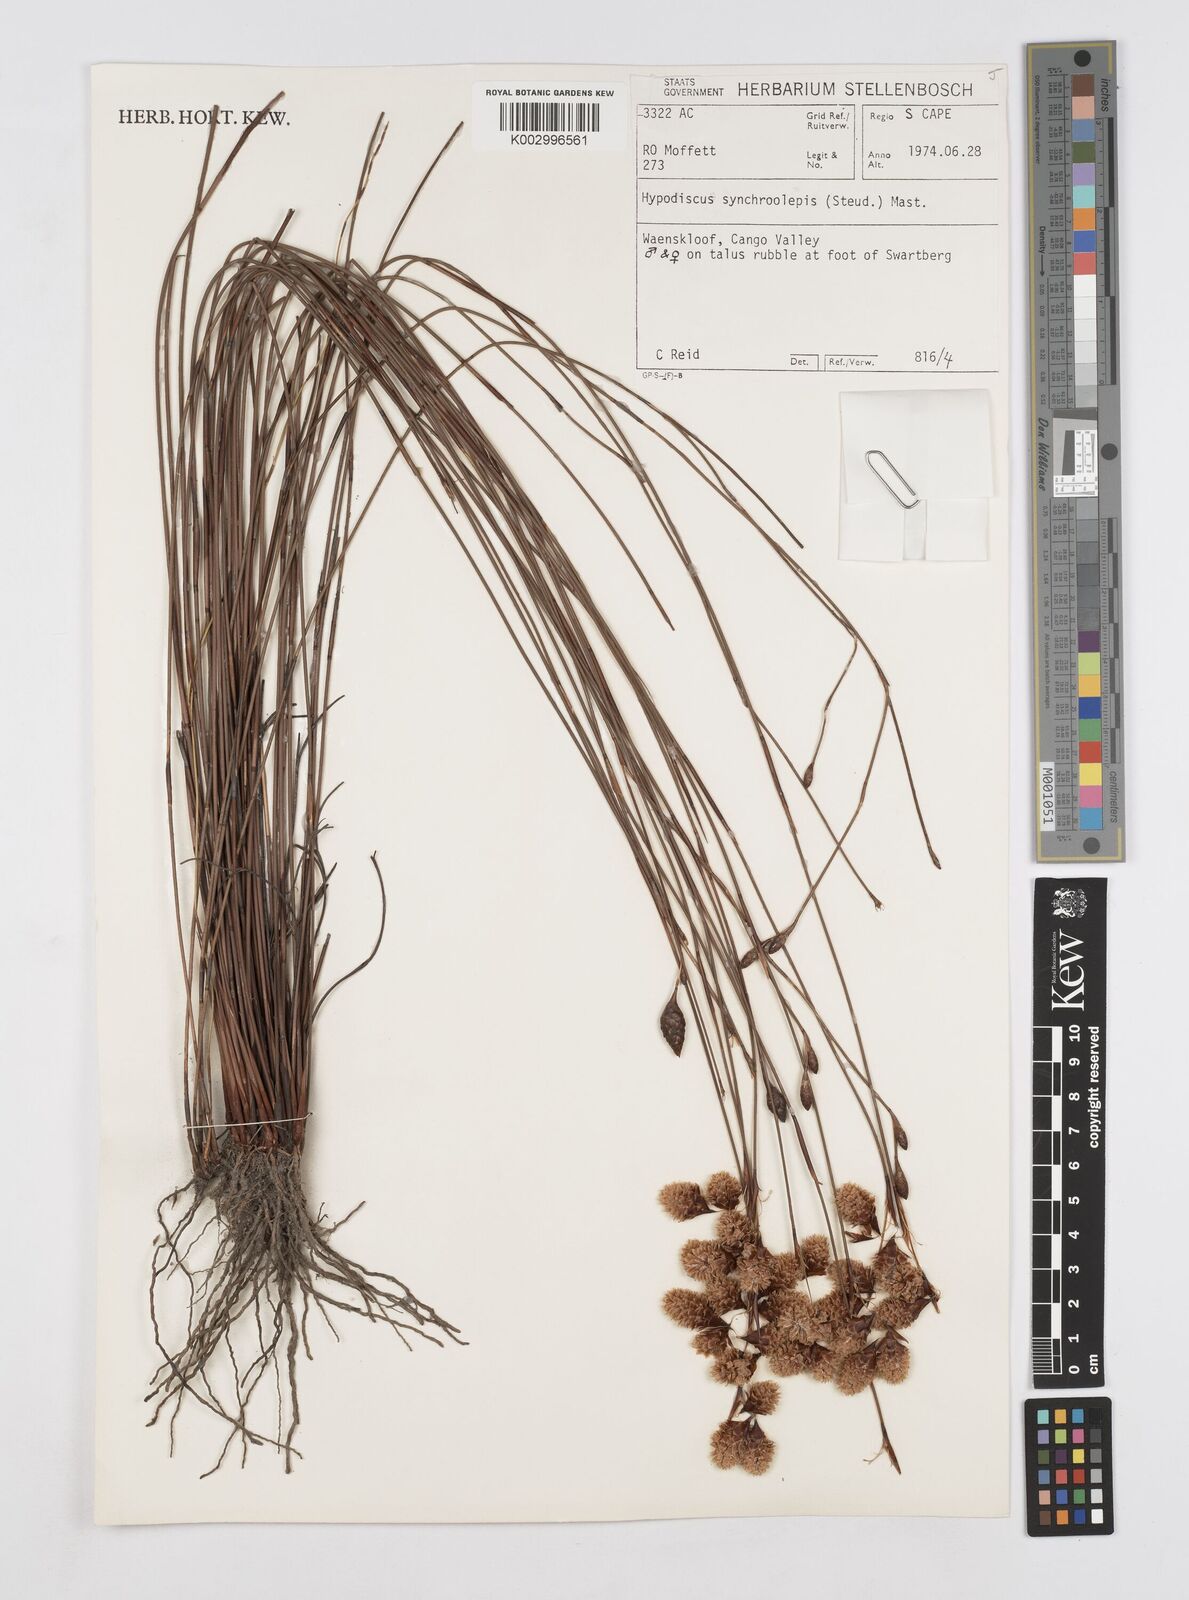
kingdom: Plantae
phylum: Tracheophyta
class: Liliopsida
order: Poales
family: Restionaceae
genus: Hypodiscus
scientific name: Hypodiscus synchroolepis
